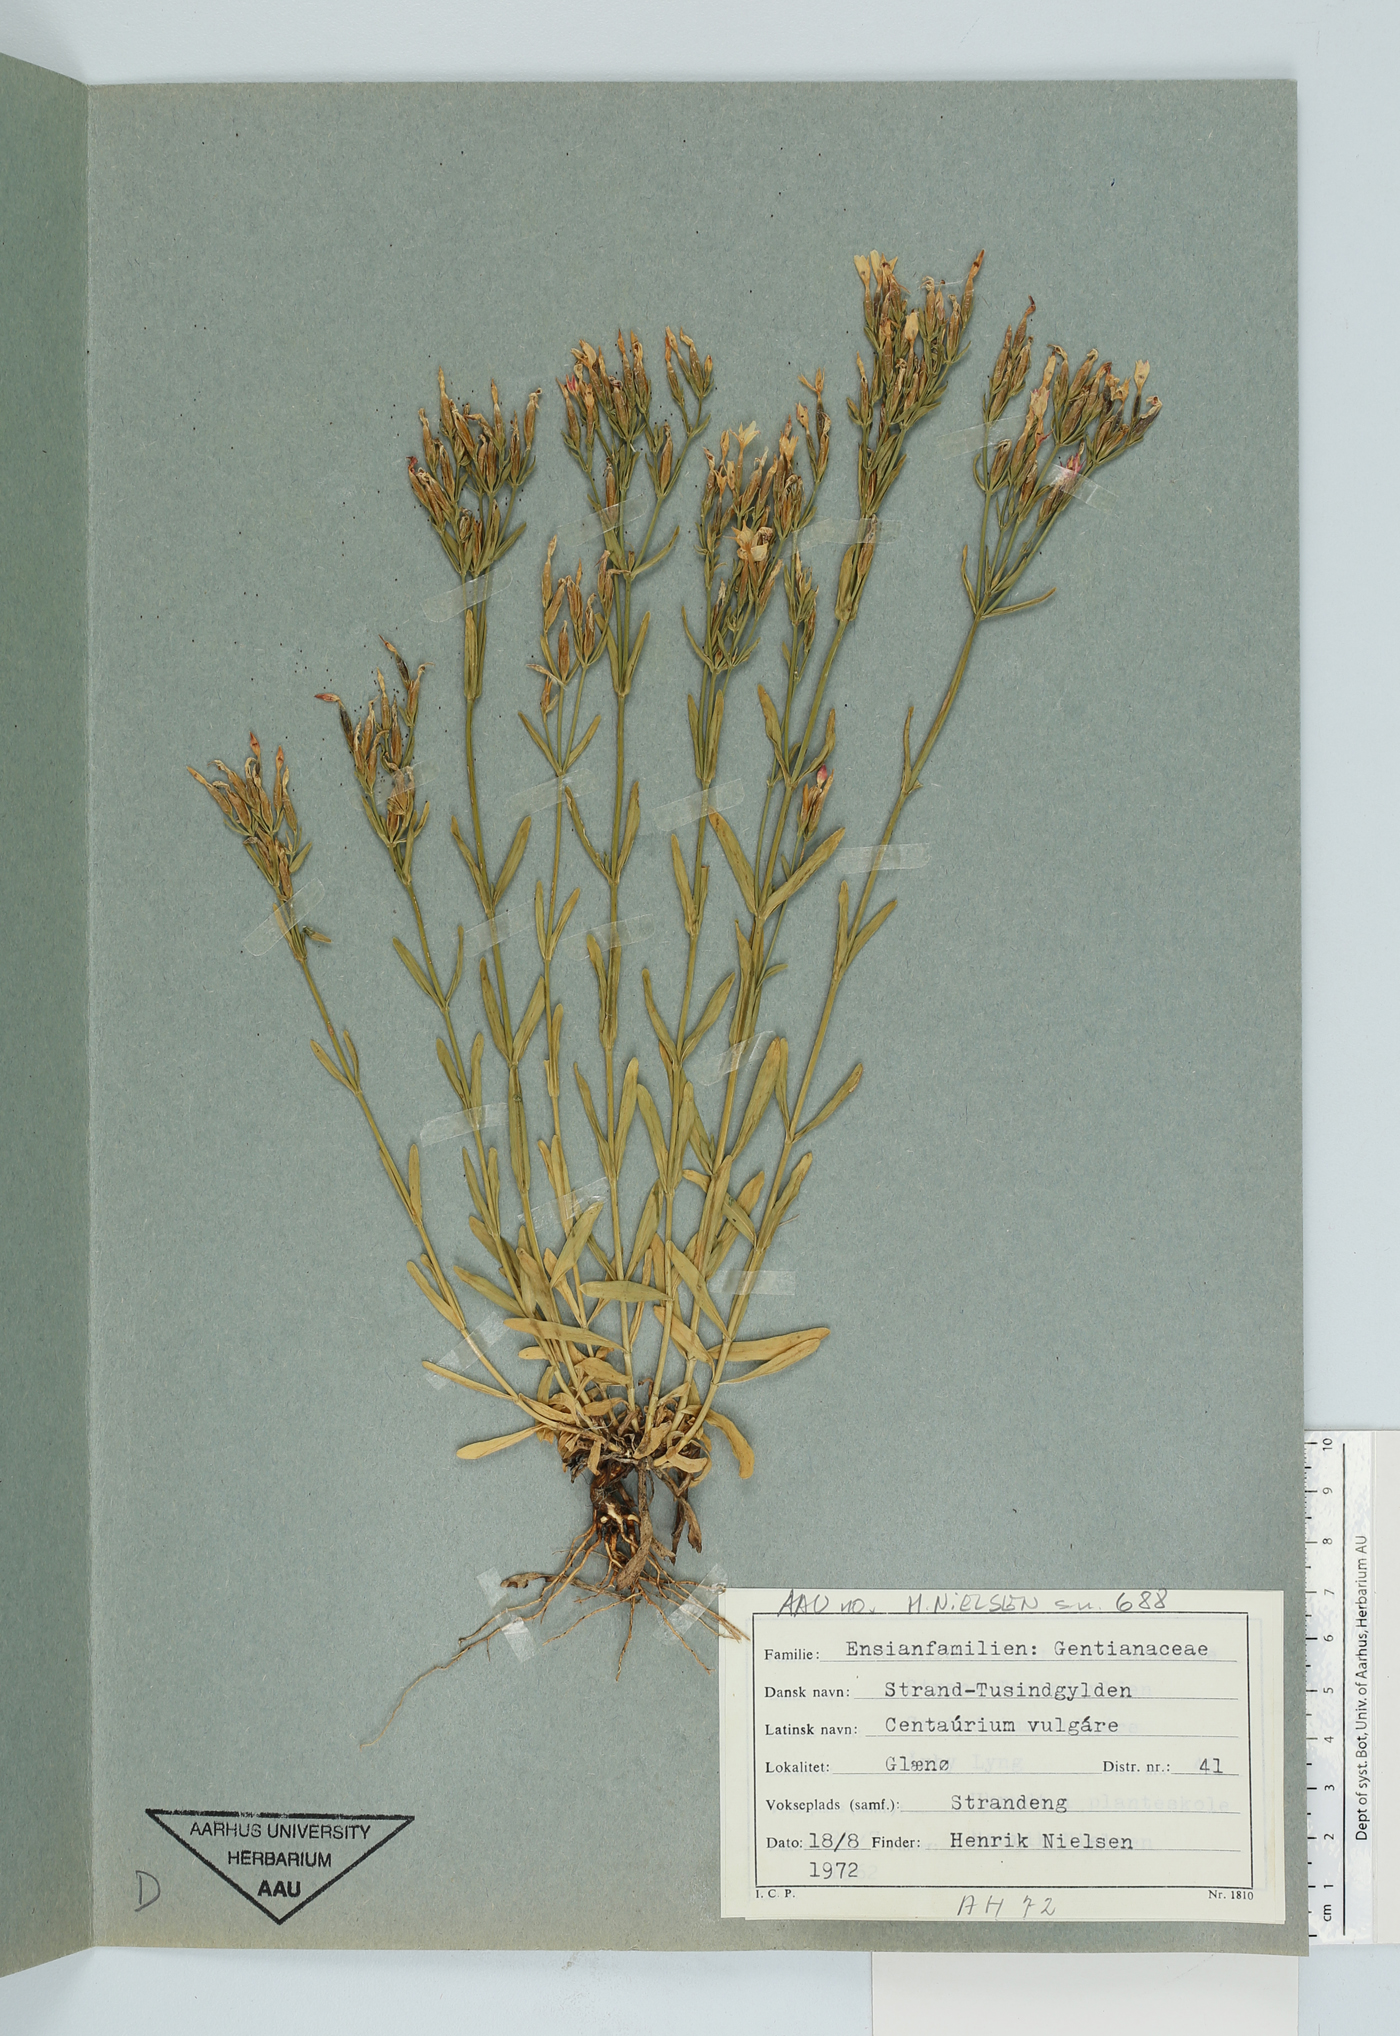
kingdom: Plantae
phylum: Tracheophyta
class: Magnoliopsida
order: Gentianales
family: Gentianaceae
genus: Centaurium
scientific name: Centaurium littorale
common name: Seaside centaury
